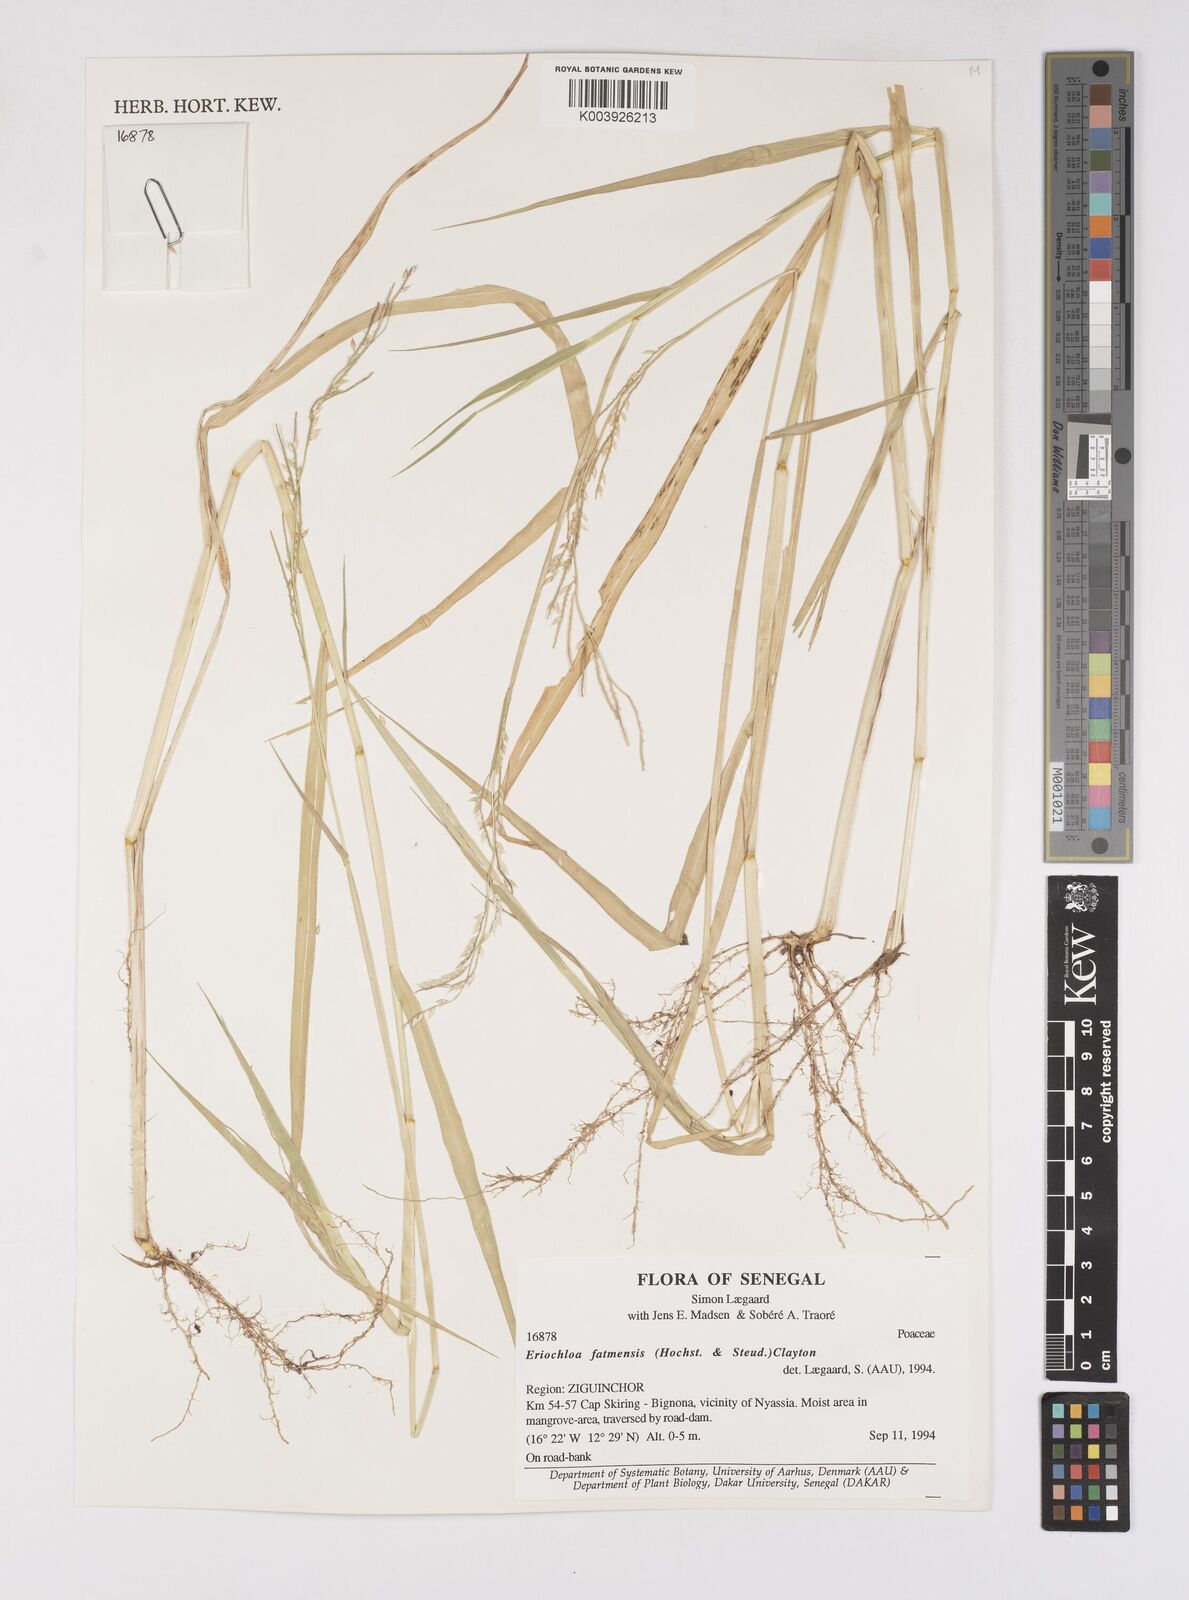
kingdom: Plantae
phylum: Tracheophyta
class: Liliopsida
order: Poales
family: Poaceae
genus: Eriochloa
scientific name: Eriochloa barbatus
